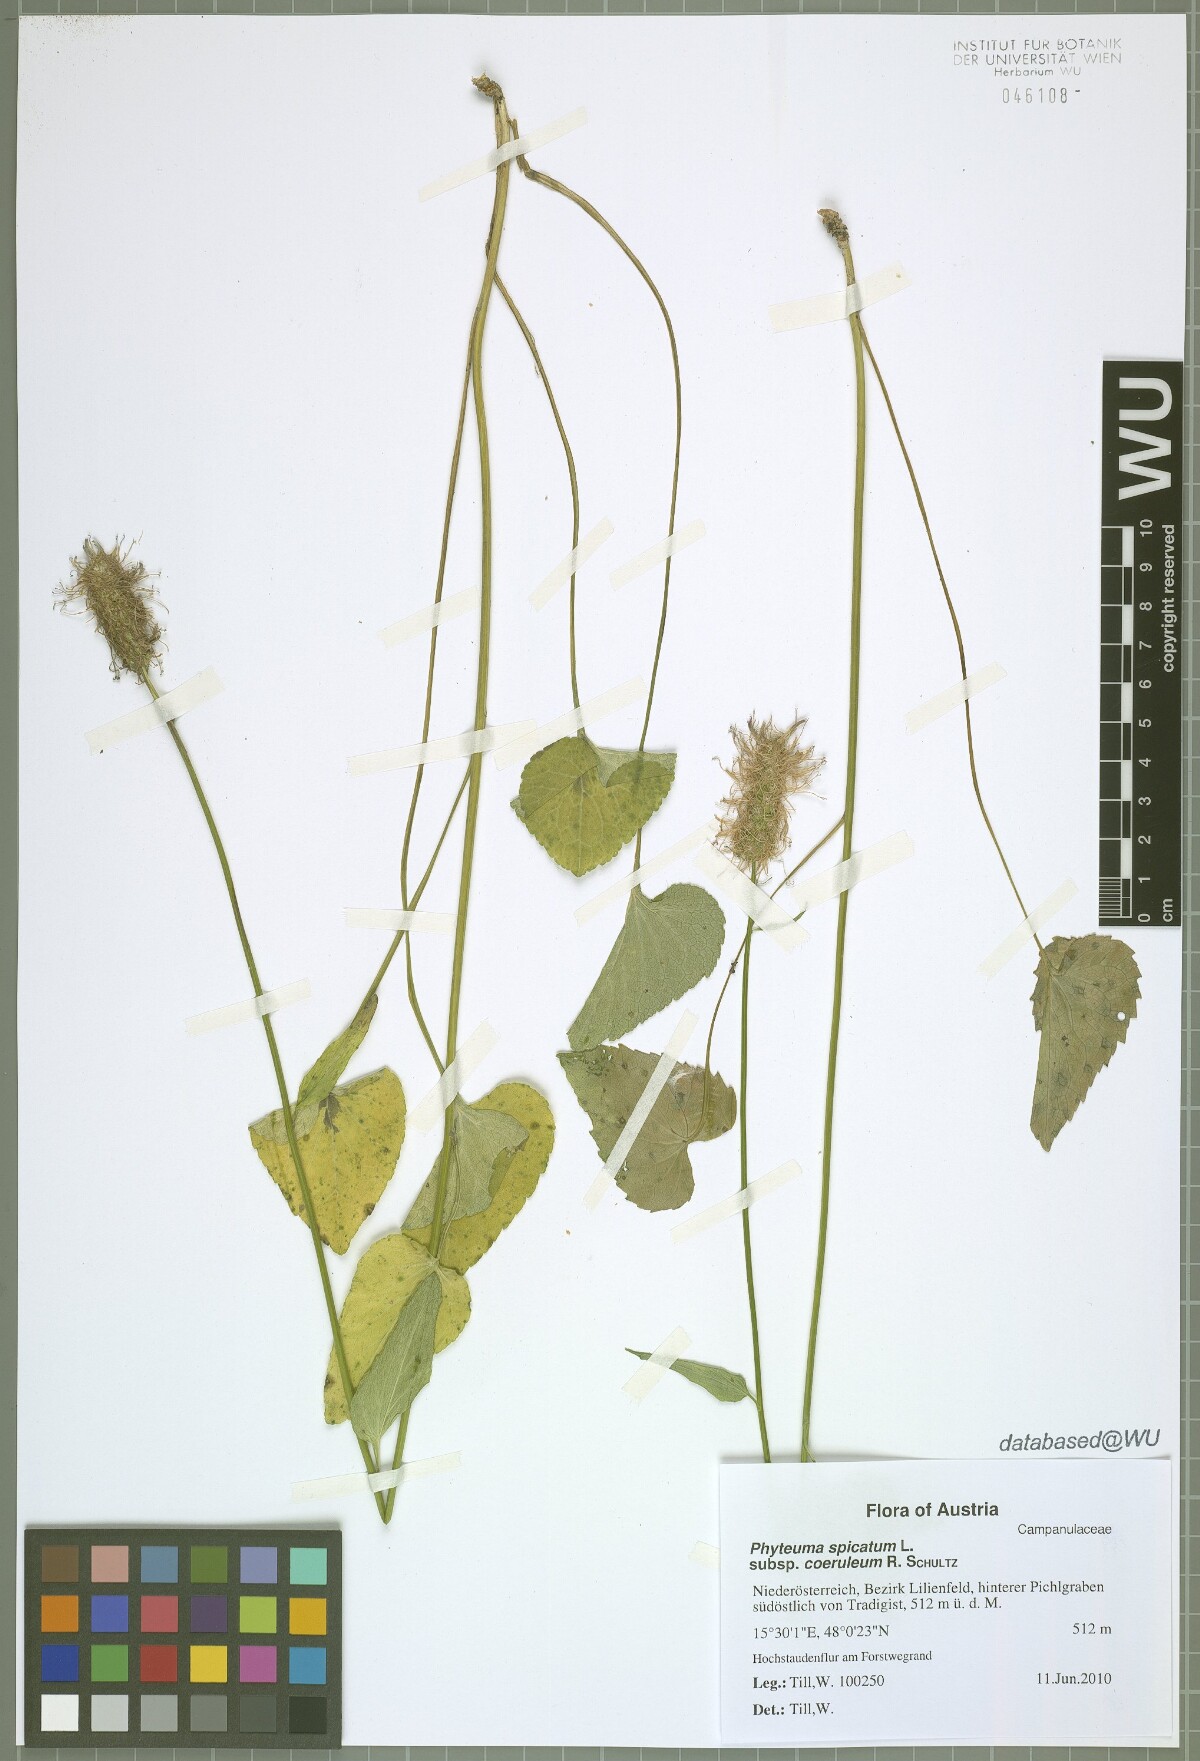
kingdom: Plantae
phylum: Tracheophyta
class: Magnoliopsida
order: Asterales
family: Campanulaceae
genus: Phyteuma
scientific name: Phyteuma spicatum
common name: Spiked rampion
